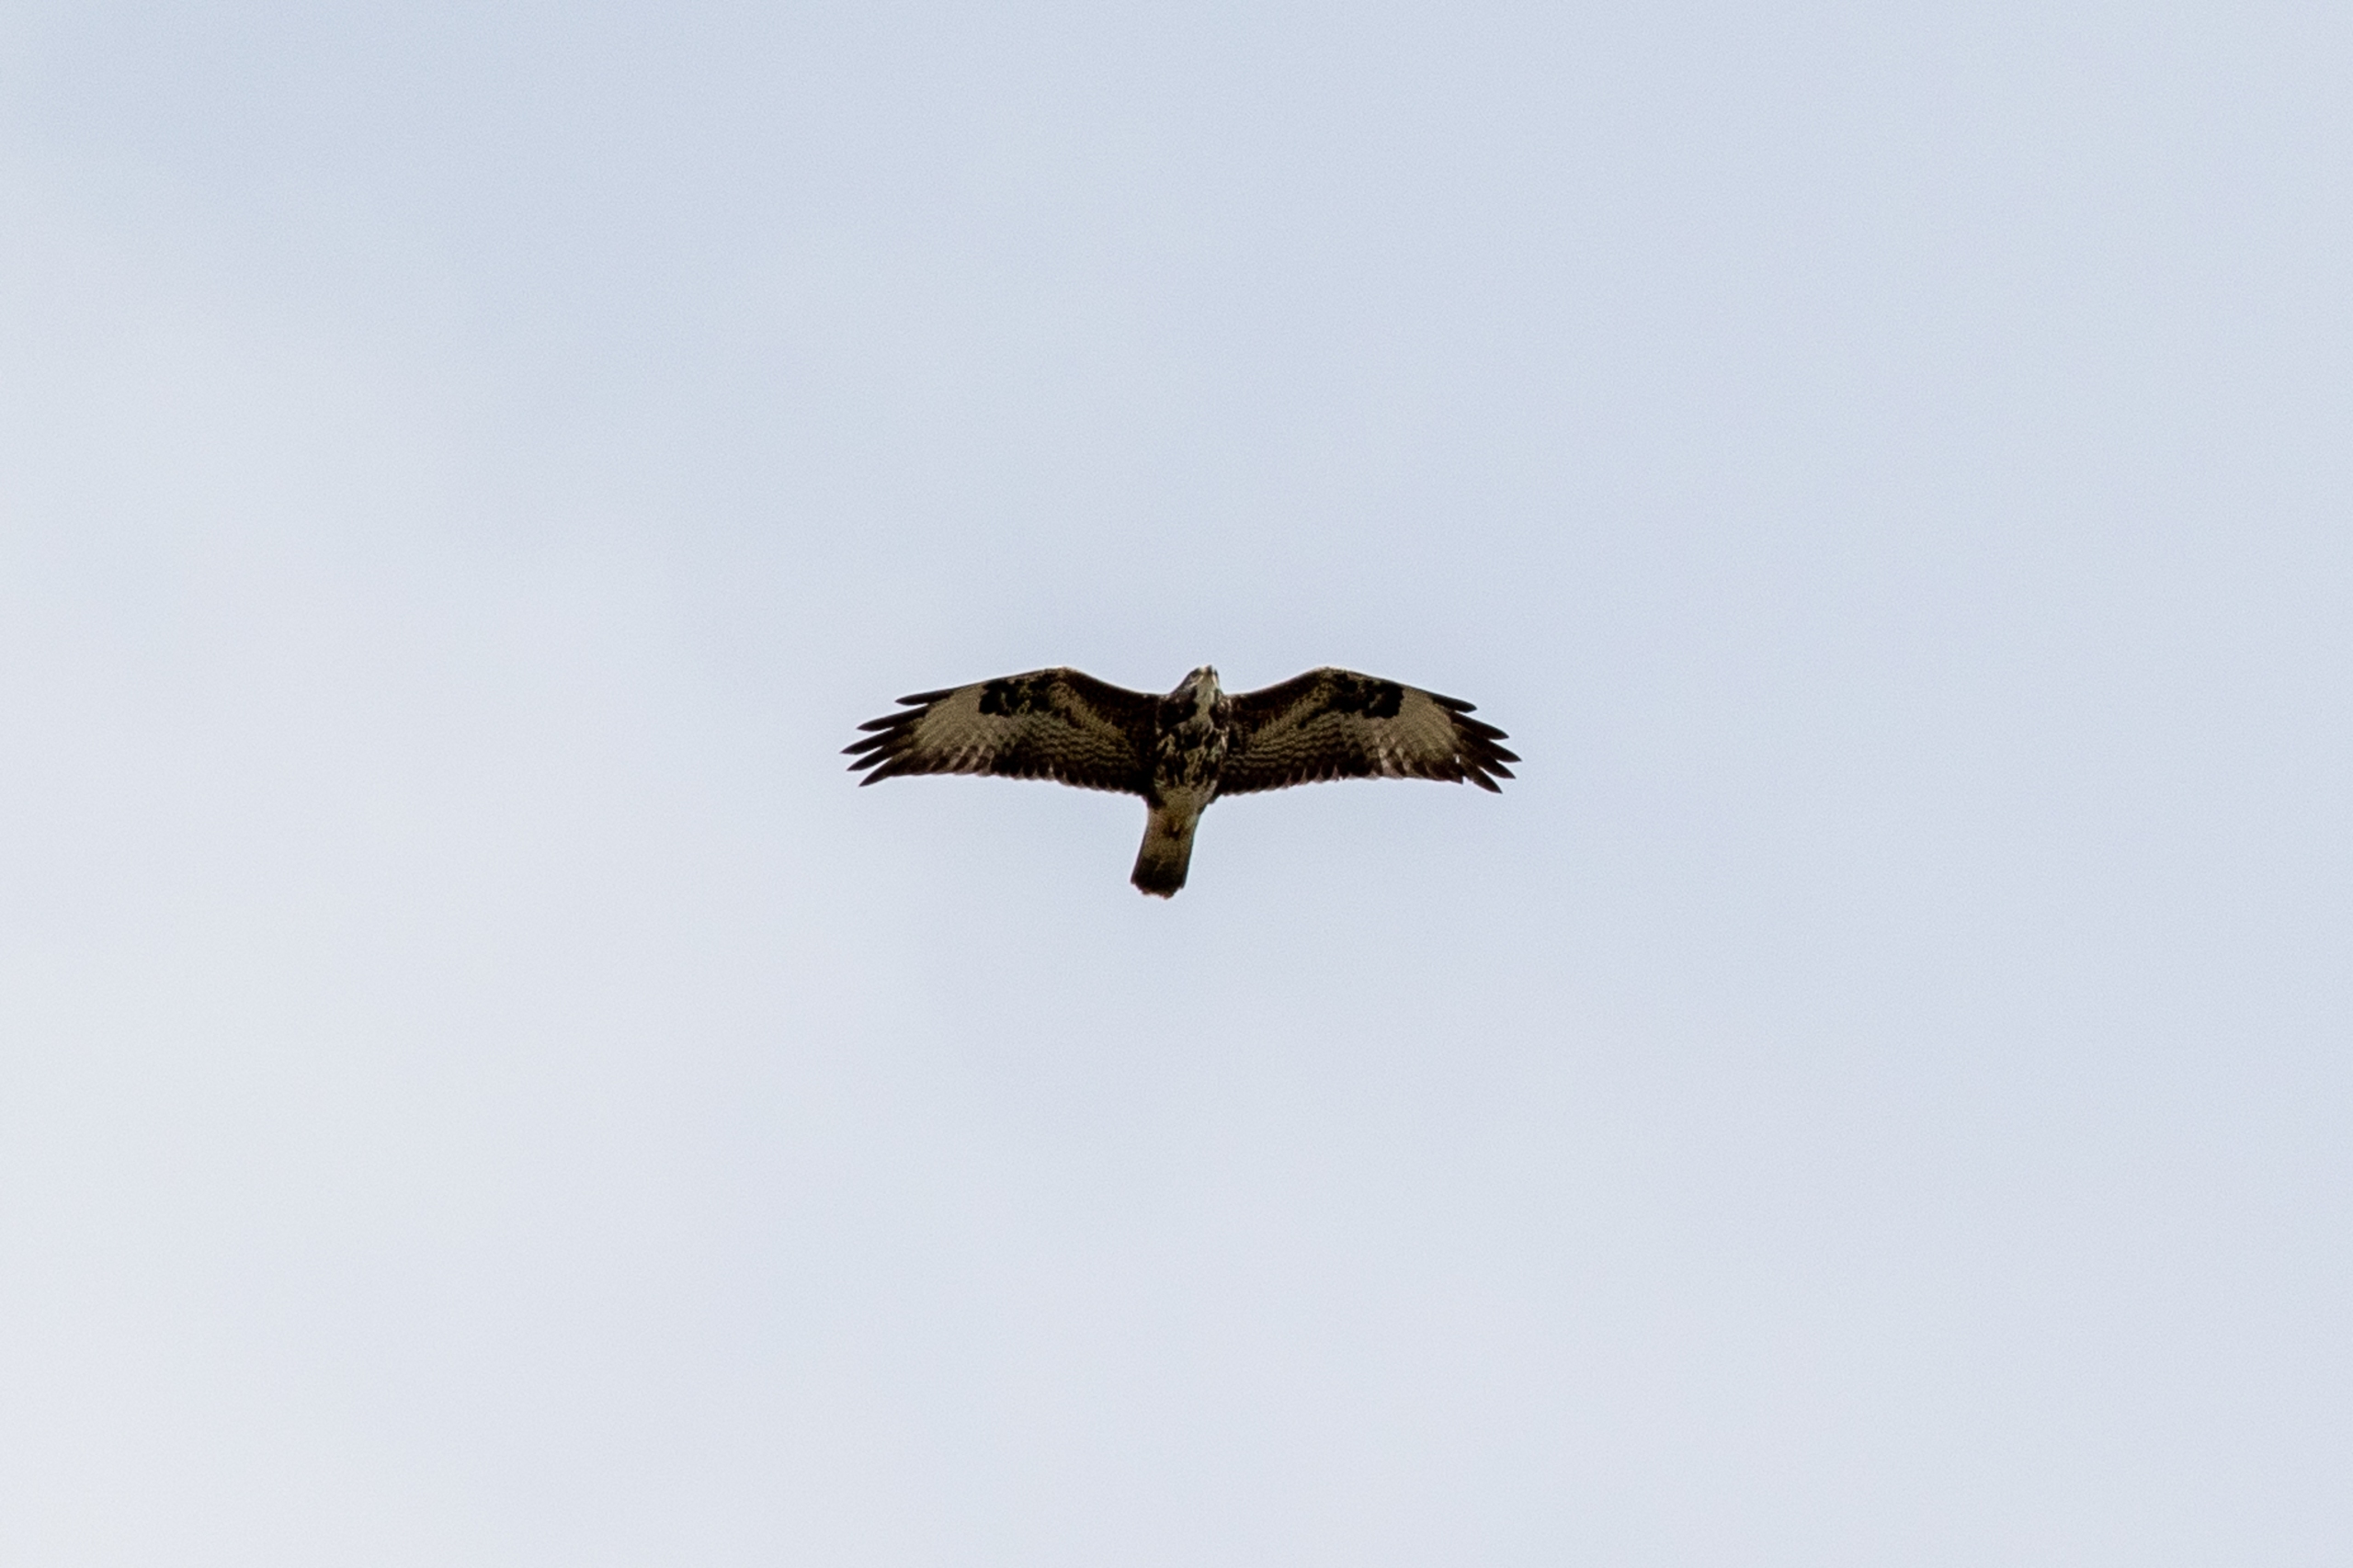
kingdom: Animalia
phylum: Chordata
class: Aves
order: Accipitriformes
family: Accipitridae
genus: Buteo
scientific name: Buteo buteo
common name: Musvåge
